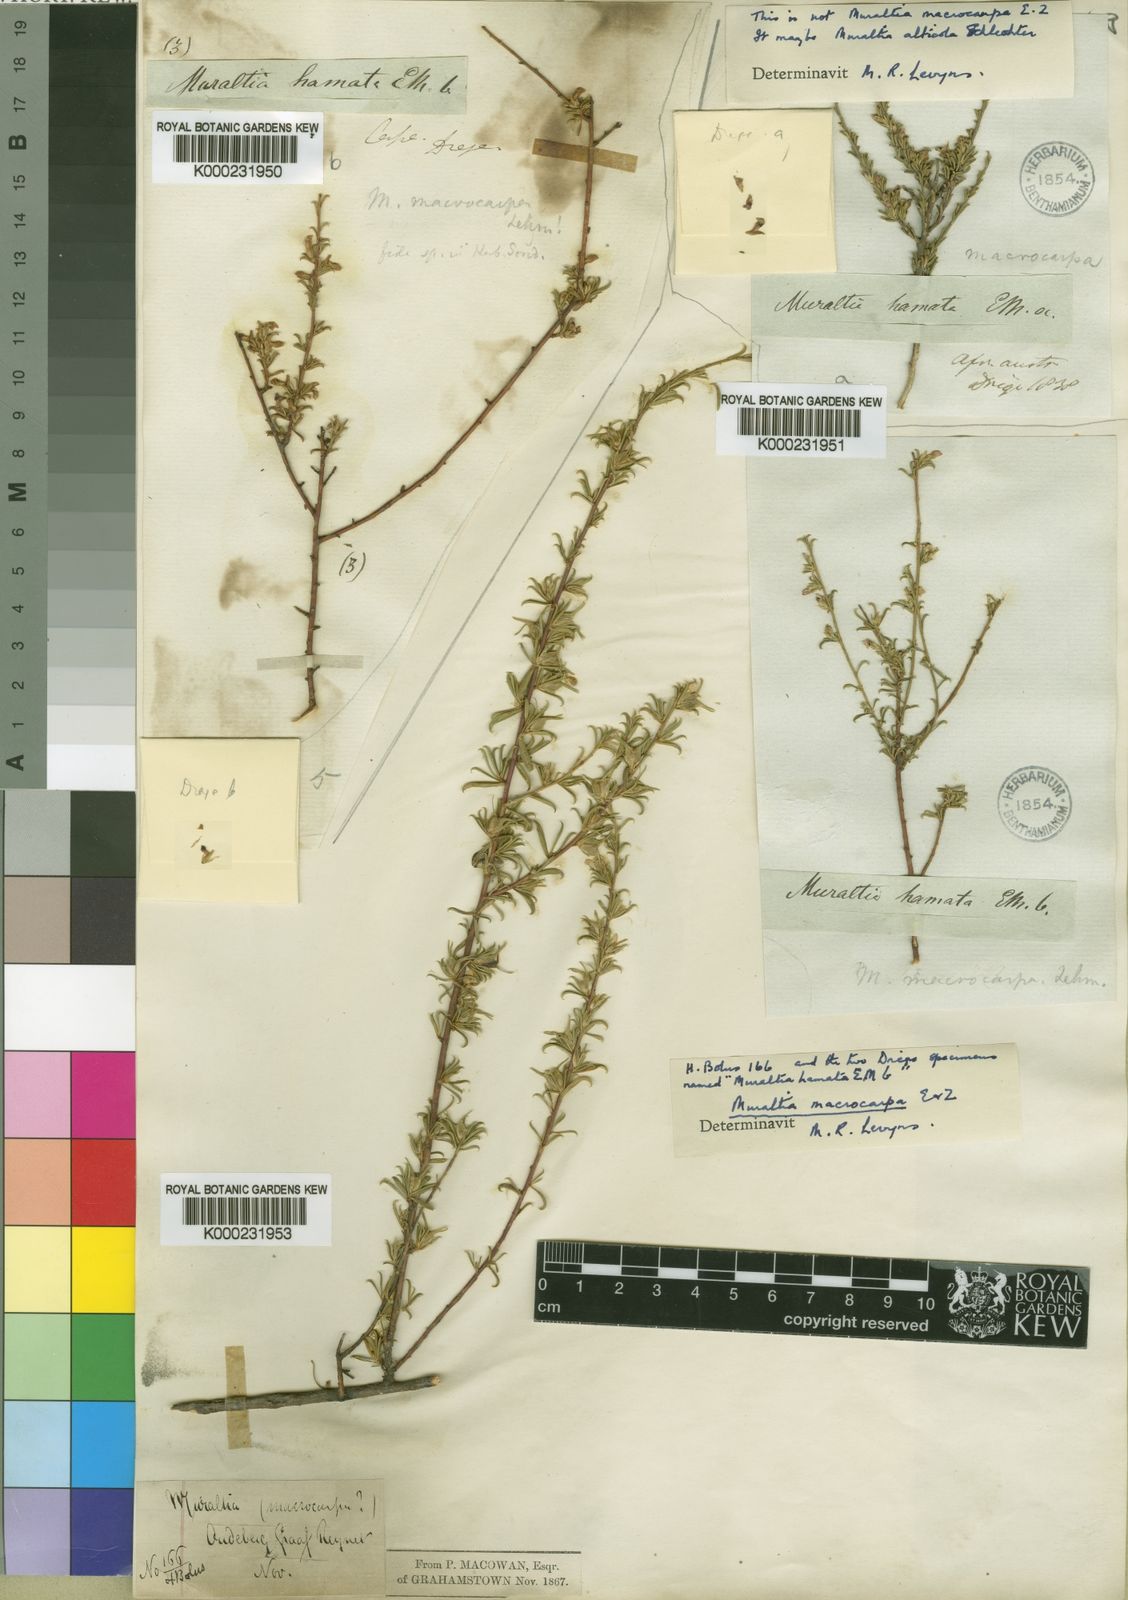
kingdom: Plantae
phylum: Tracheophyta
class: Magnoliopsida
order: Fabales
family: Polygalaceae
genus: Muraltia
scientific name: Muraltia macrocarpa
